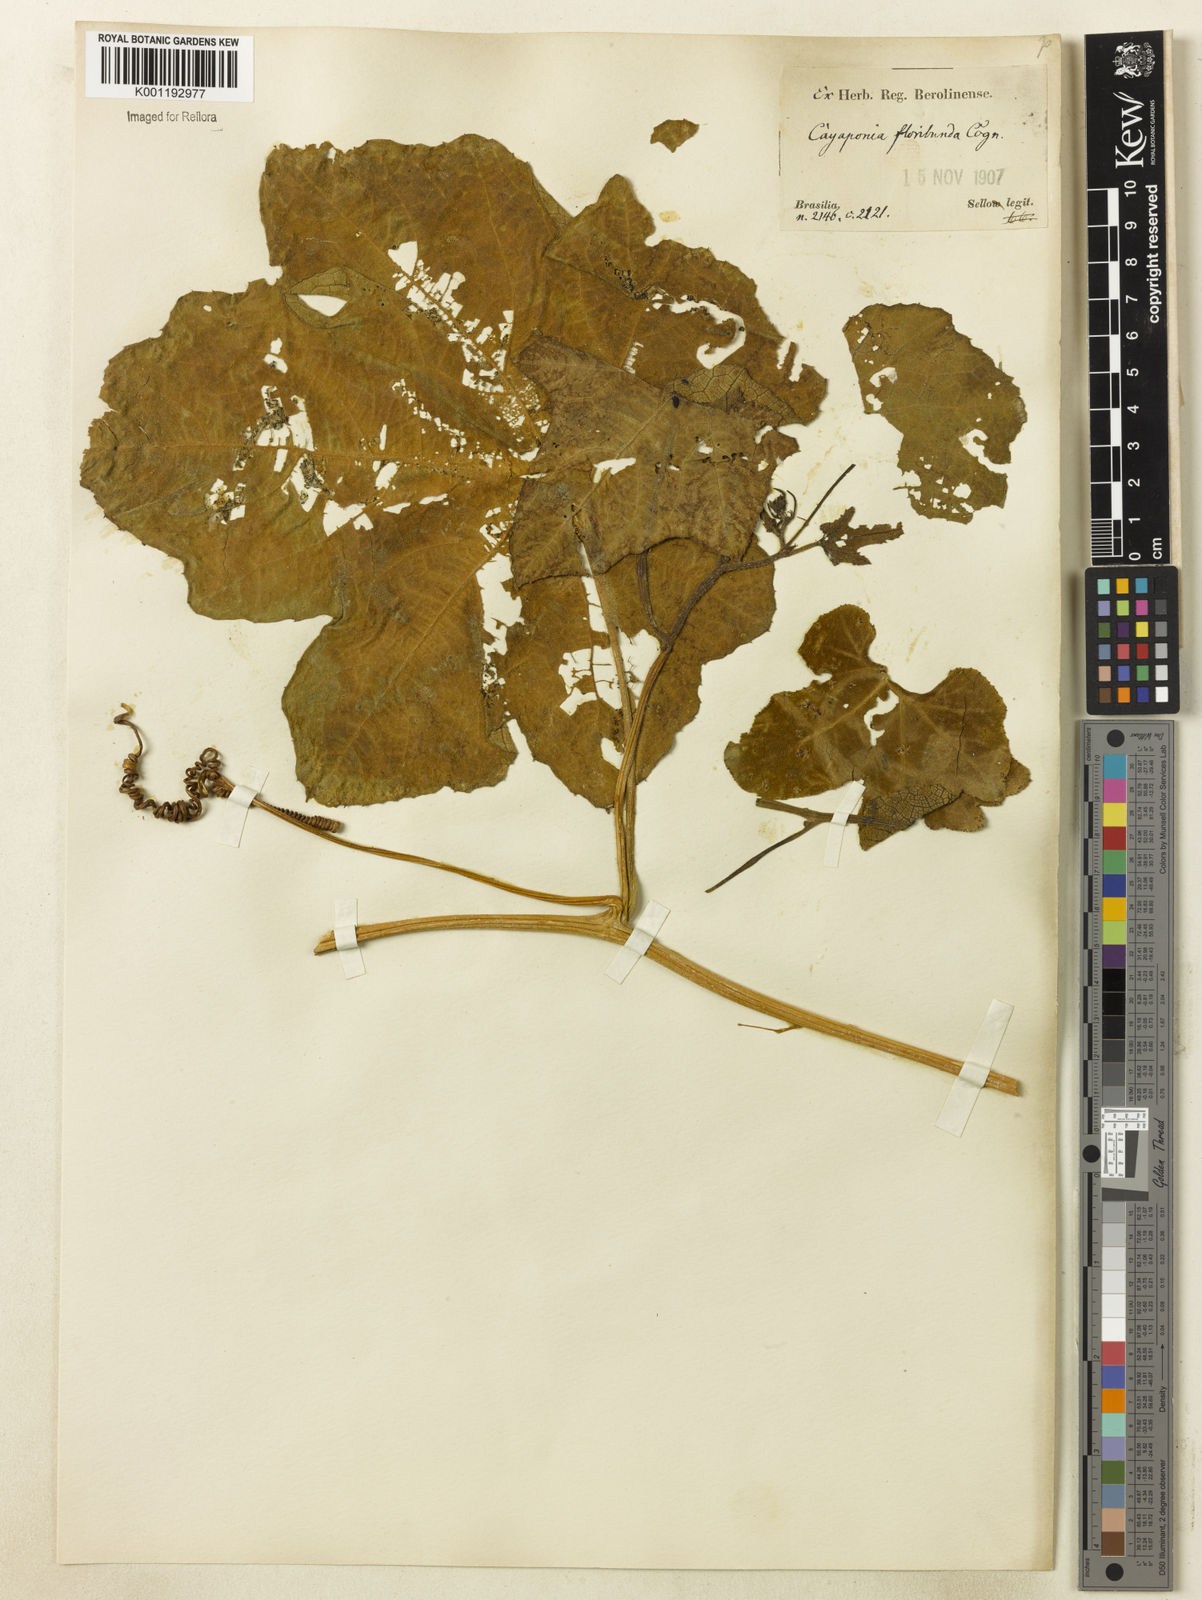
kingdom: Plantae
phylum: Tracheophyta
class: Magnoliopsida
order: Cucurbitales
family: Cucurbitaceae
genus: Cayaponia
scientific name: Cayaponia floribunda
